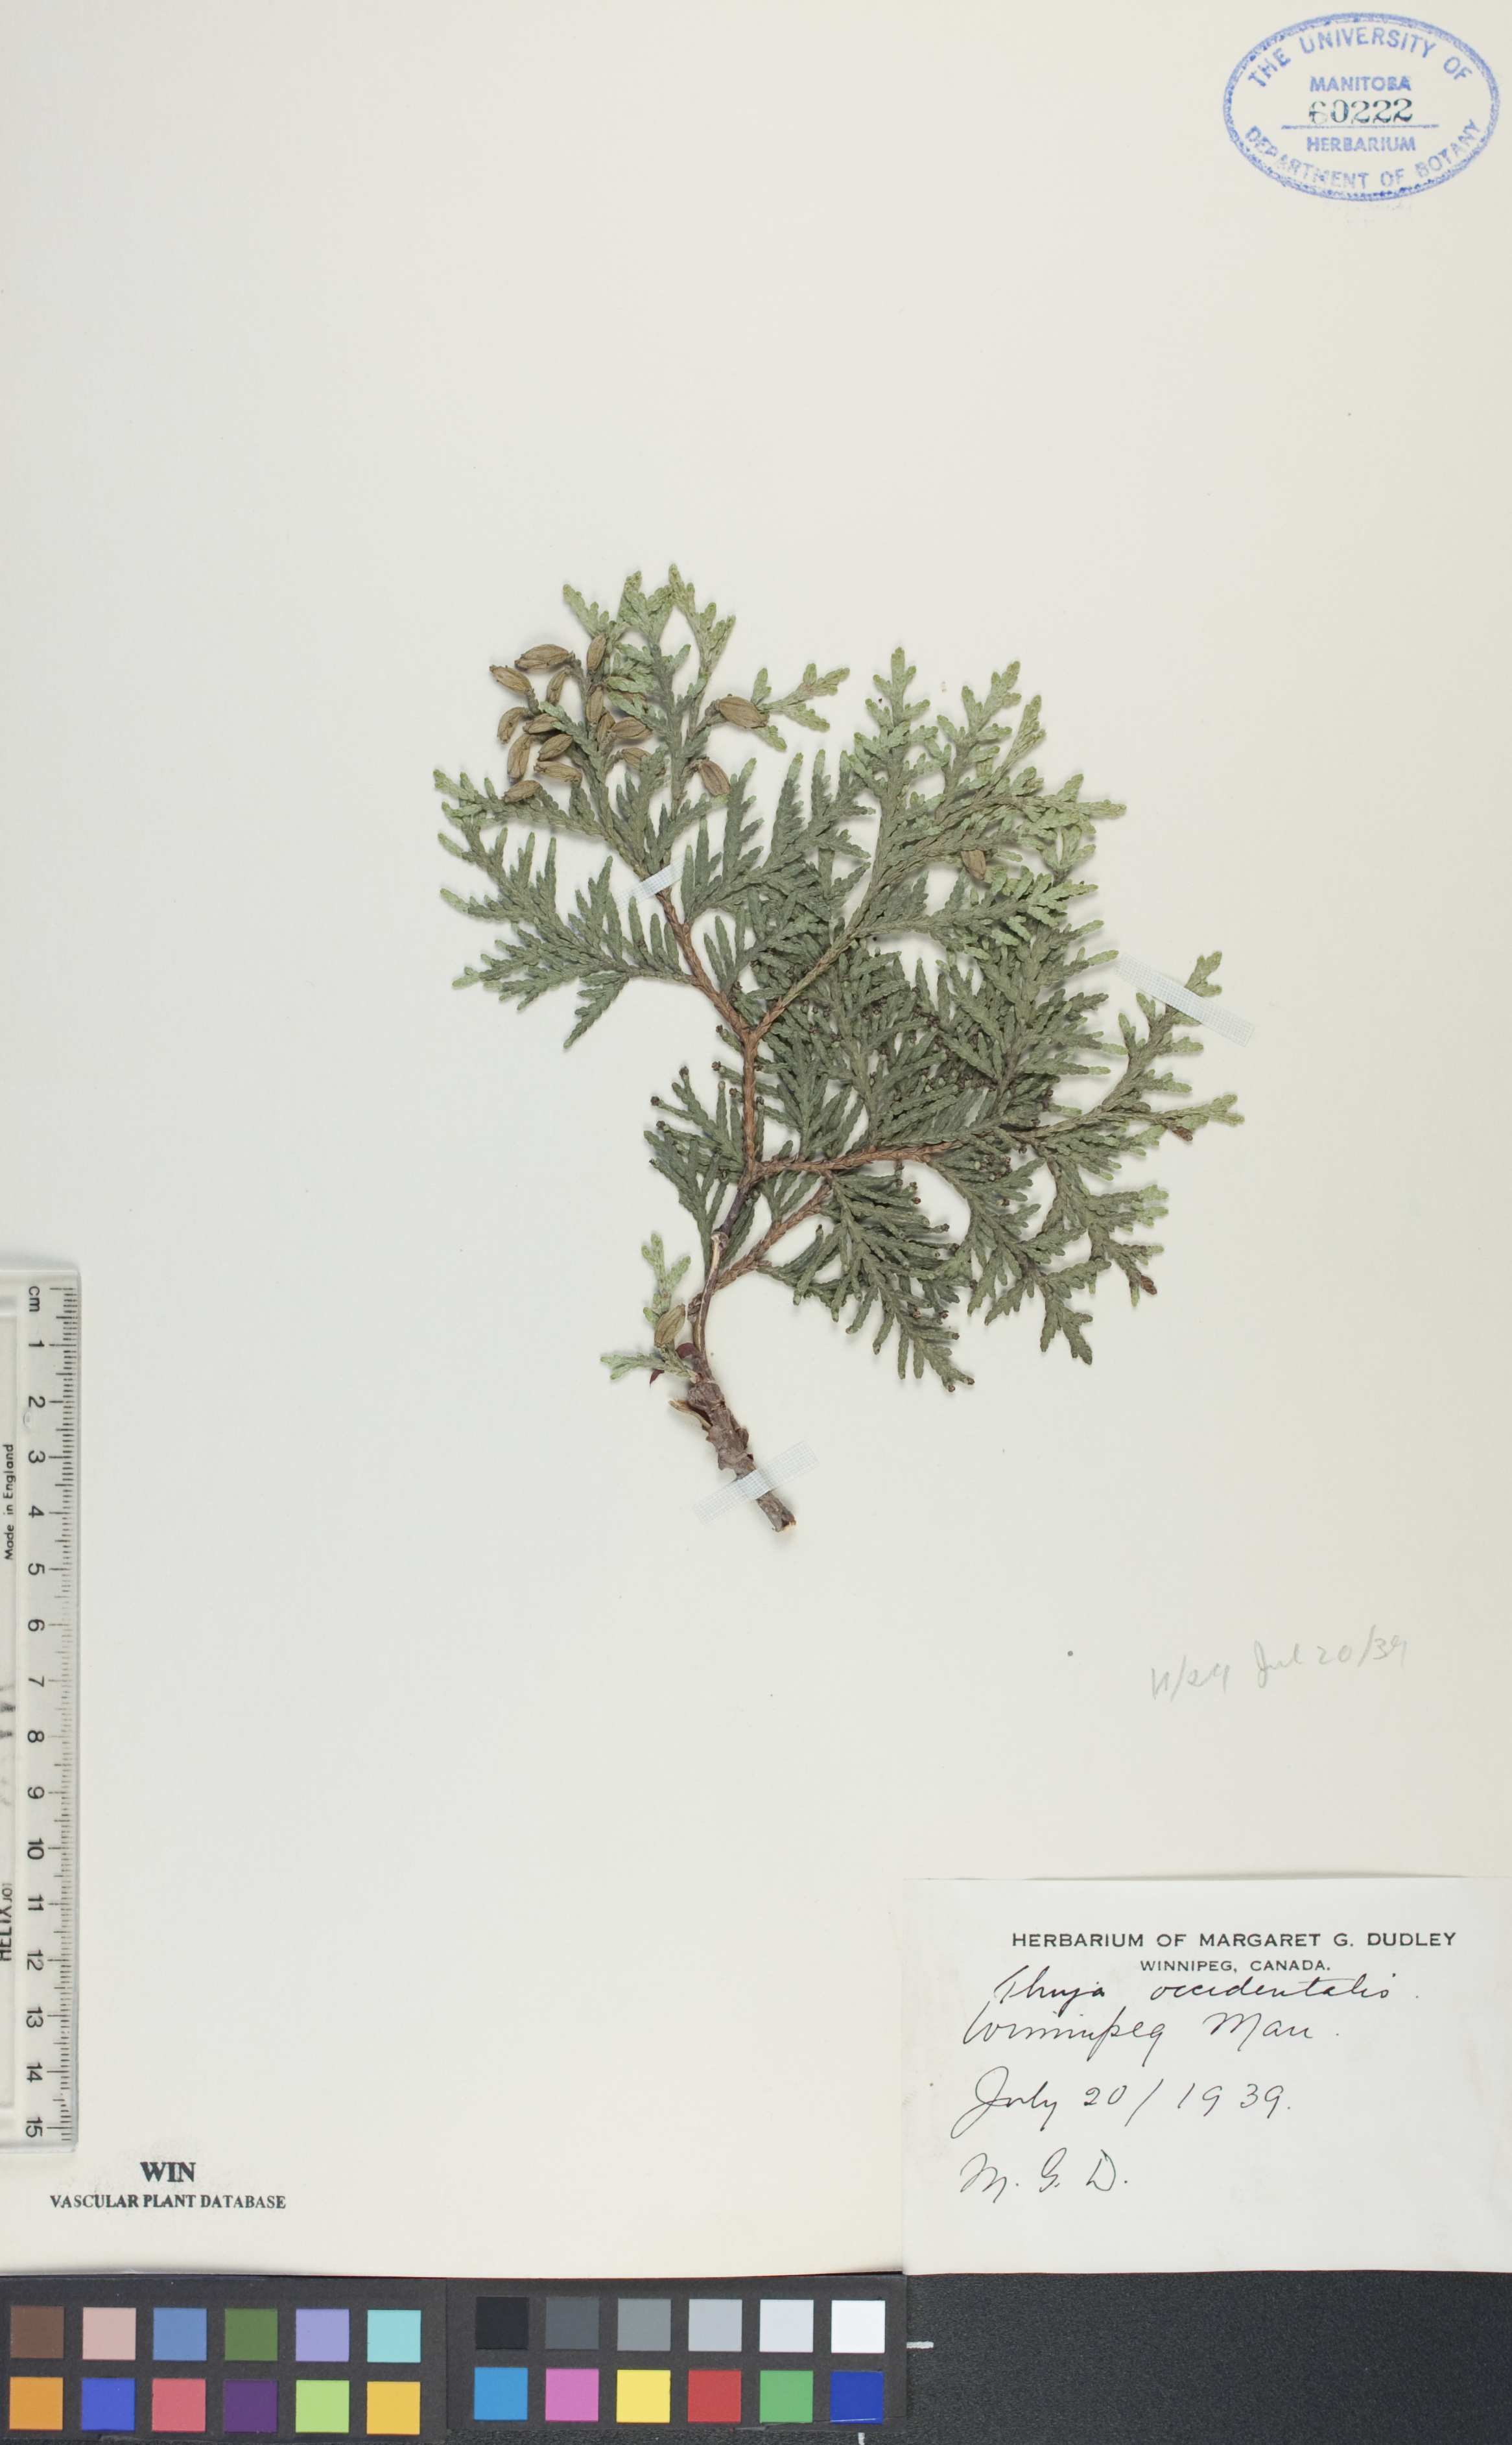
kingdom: Plantae
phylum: Tracheophyta
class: Pinopsida
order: Pinales
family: Cupressaceae
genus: Thuja
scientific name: Thuja occidentalis
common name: Northern white-cedar
